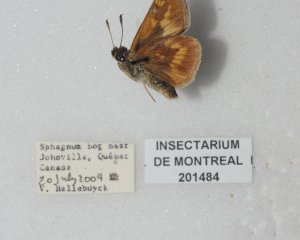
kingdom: Animalia
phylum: Arthropoda
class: Insecta
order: Lepidoptera
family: Hesperiidae
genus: Polites
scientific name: Polites
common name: Long Dash Skipper
